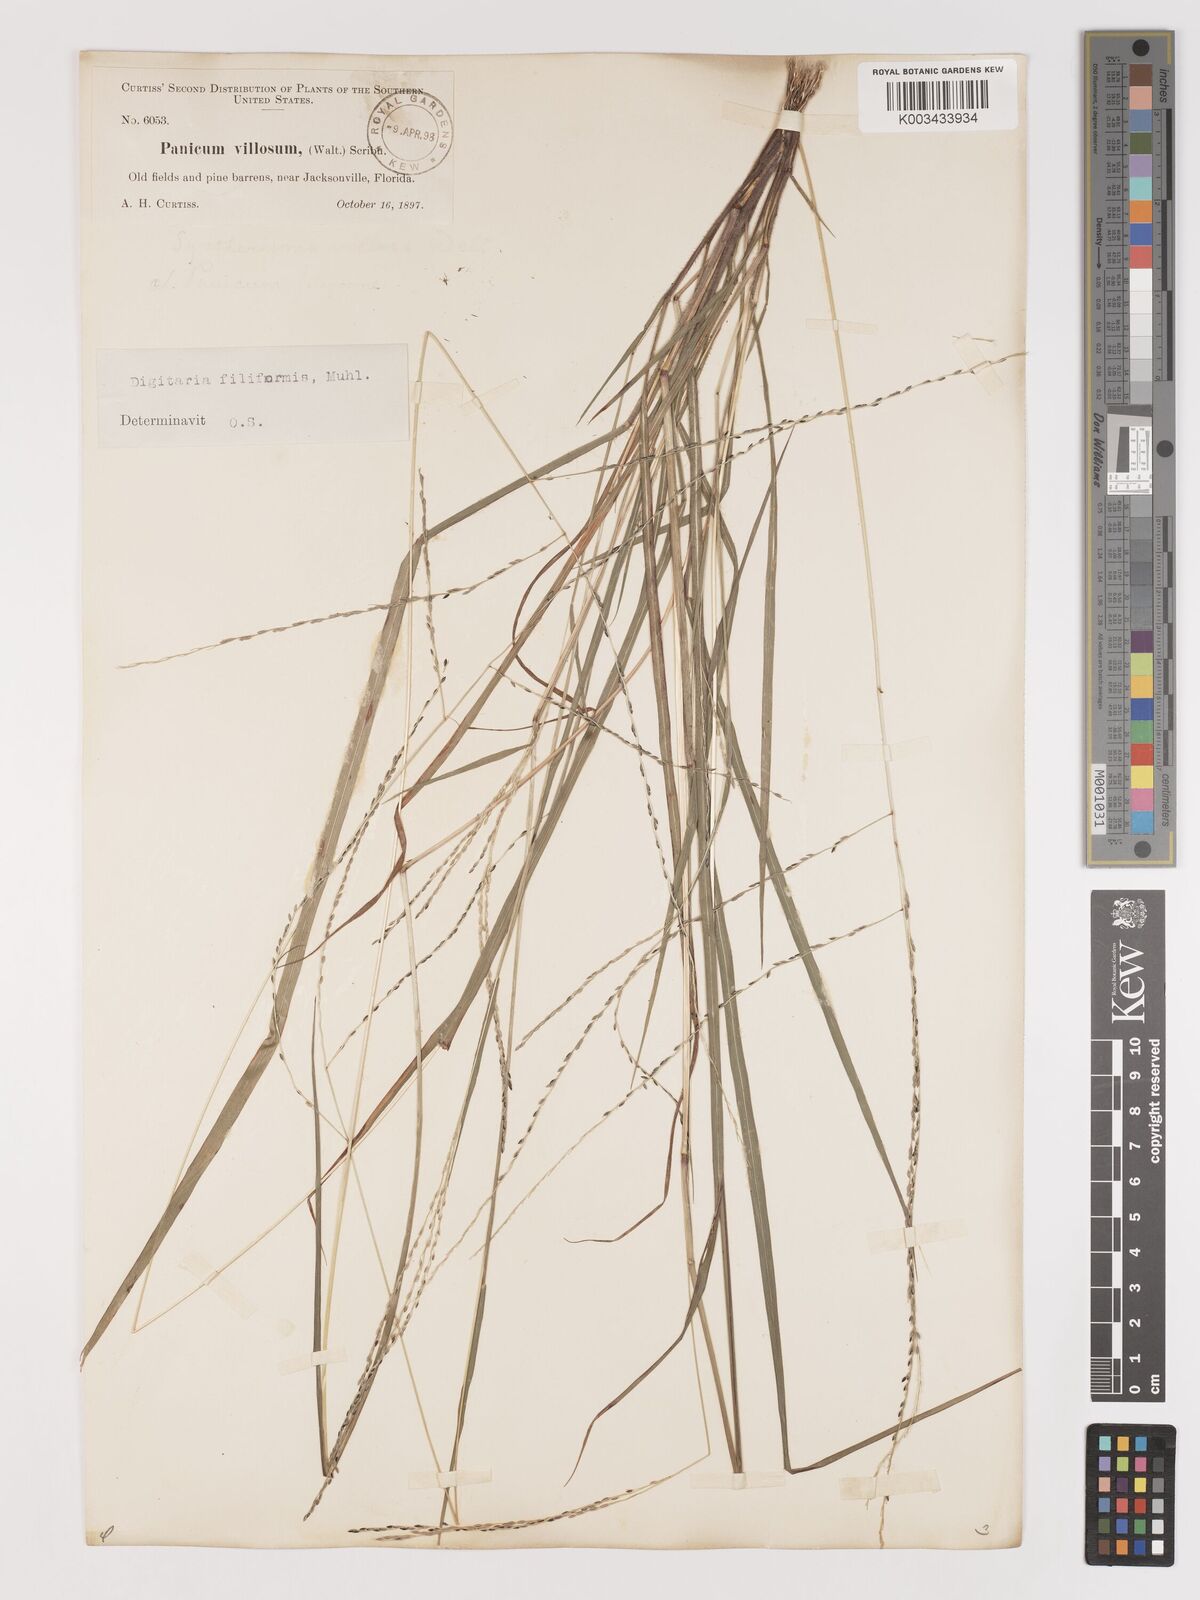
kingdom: Plantae
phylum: Tracheophyta
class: Liliopsida
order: Poales
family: Poaceae
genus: Digitaria
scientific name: Digitaria filiformis
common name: Slender crabgrass
